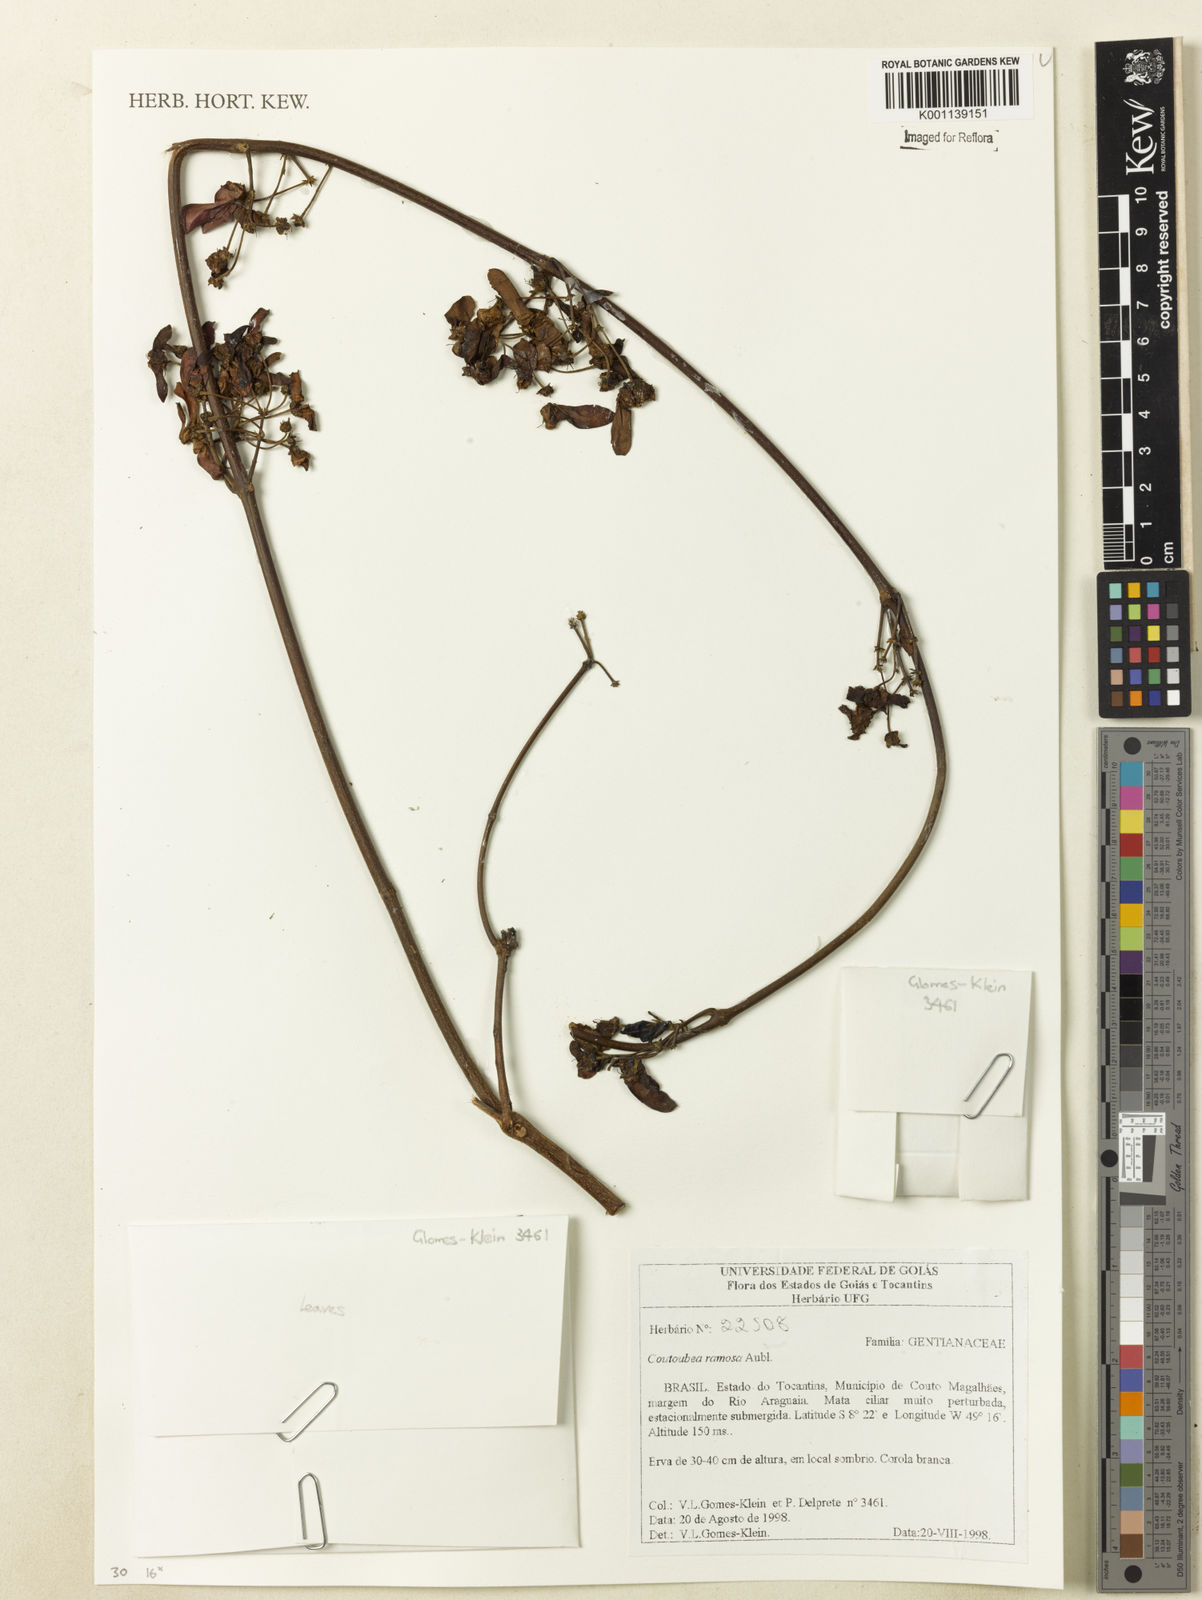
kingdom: Plantae
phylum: Tracheophyta
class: Magnoliopsida
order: Gentianales
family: Gentianaceae
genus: Coutoubea
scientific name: Coutoubea ramosa
